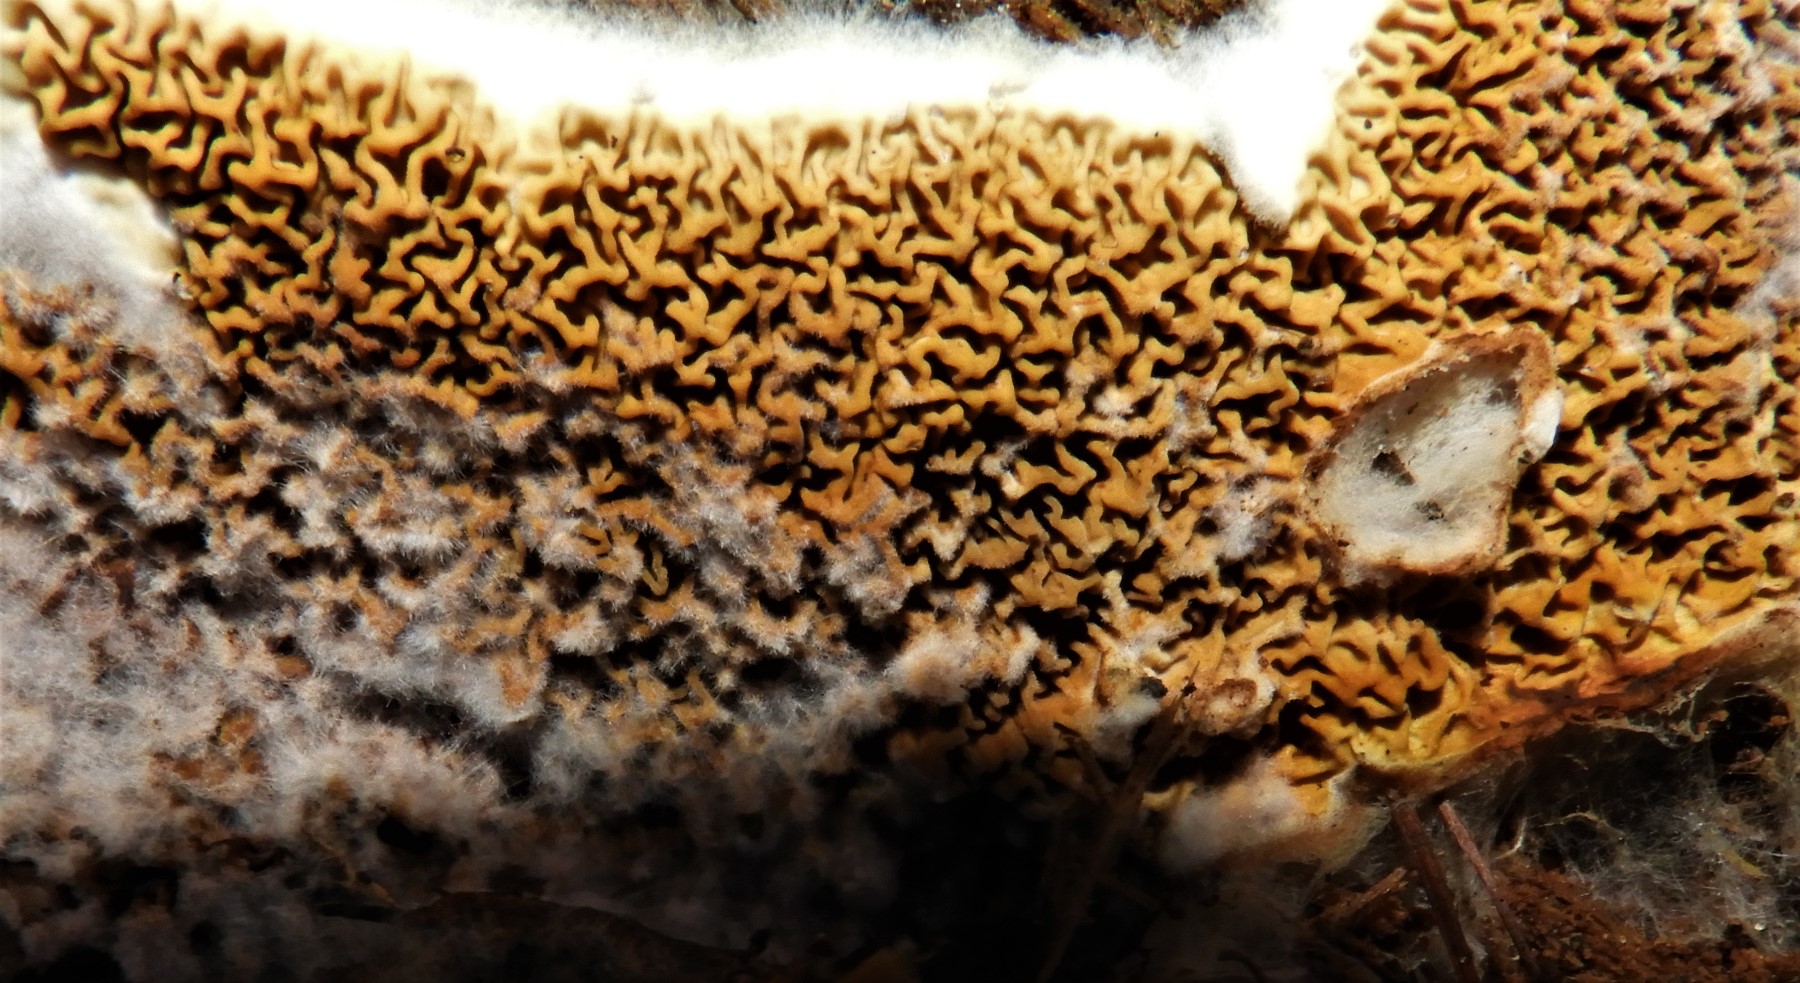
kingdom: Fungi
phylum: Basidiomycota
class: Agaricomycetes
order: Boletales
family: Serpulaceae
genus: Serpula
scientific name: Serpula himantioides
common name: tyndkødet hussvamp
